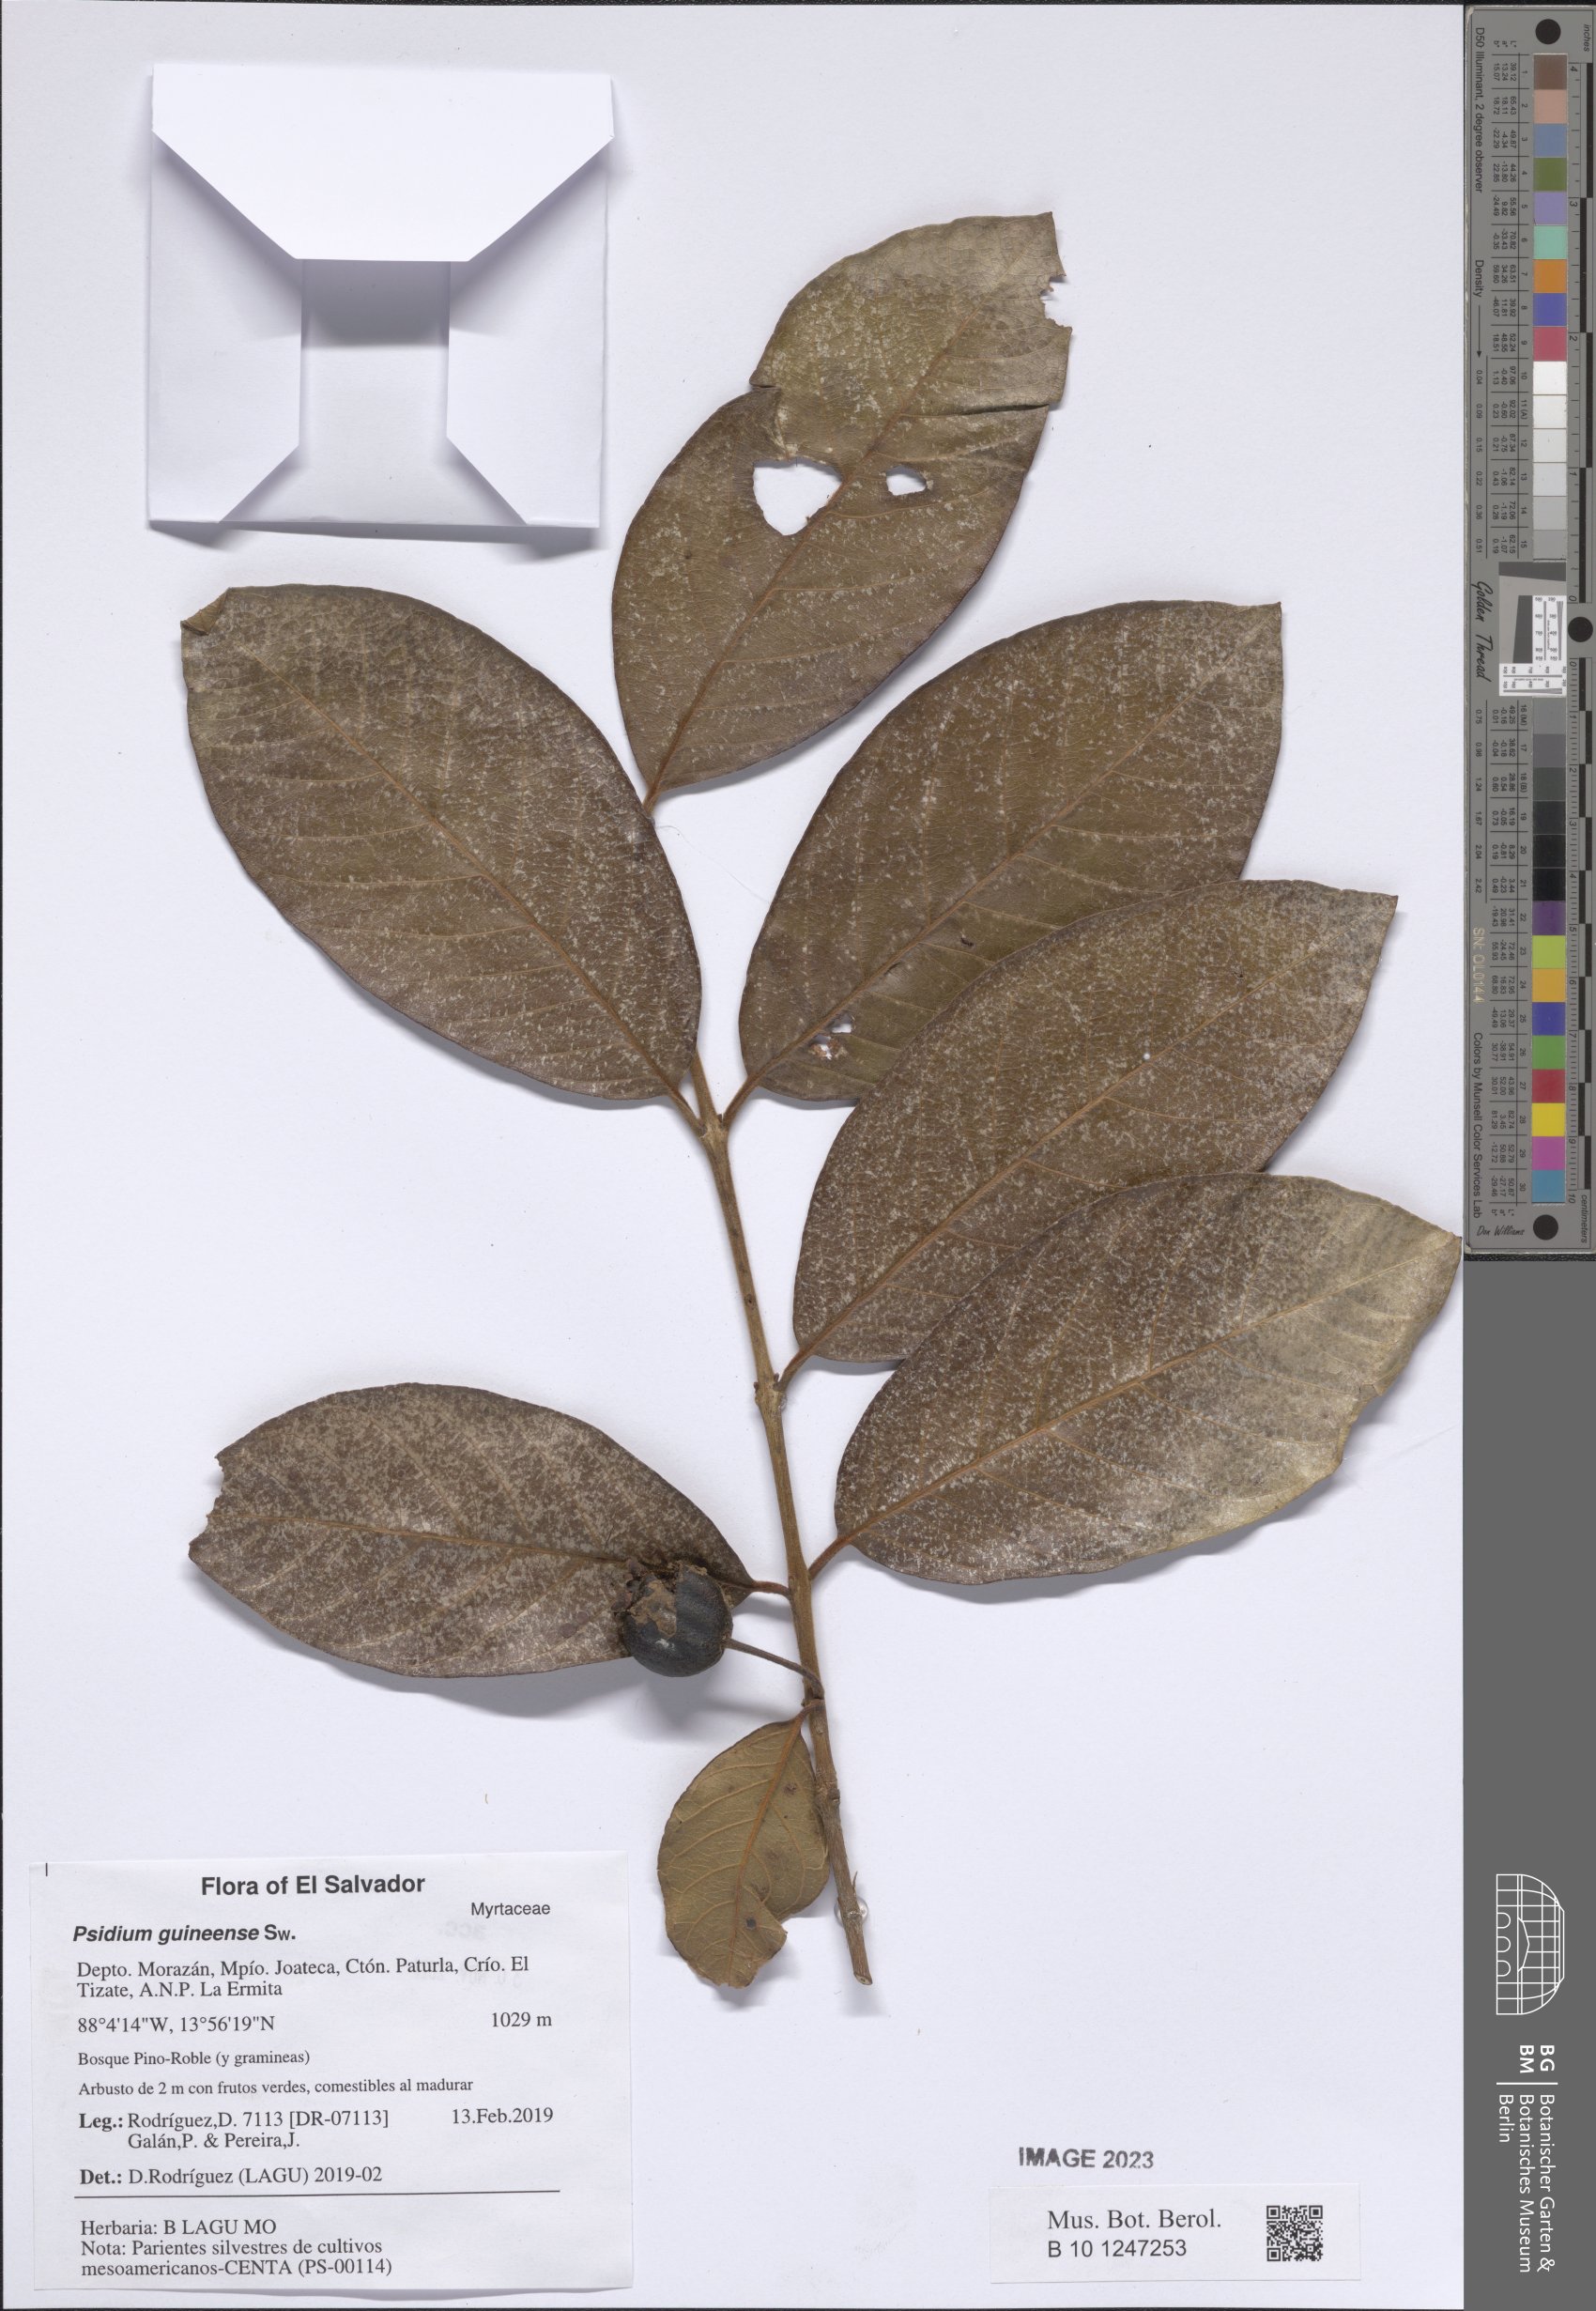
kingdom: Plantae
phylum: Tracheophyta
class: Magnoliopsida
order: Myrtales
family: Myrtaceae
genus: Psidium
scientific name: Psidium guineense
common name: Brazilian guava
